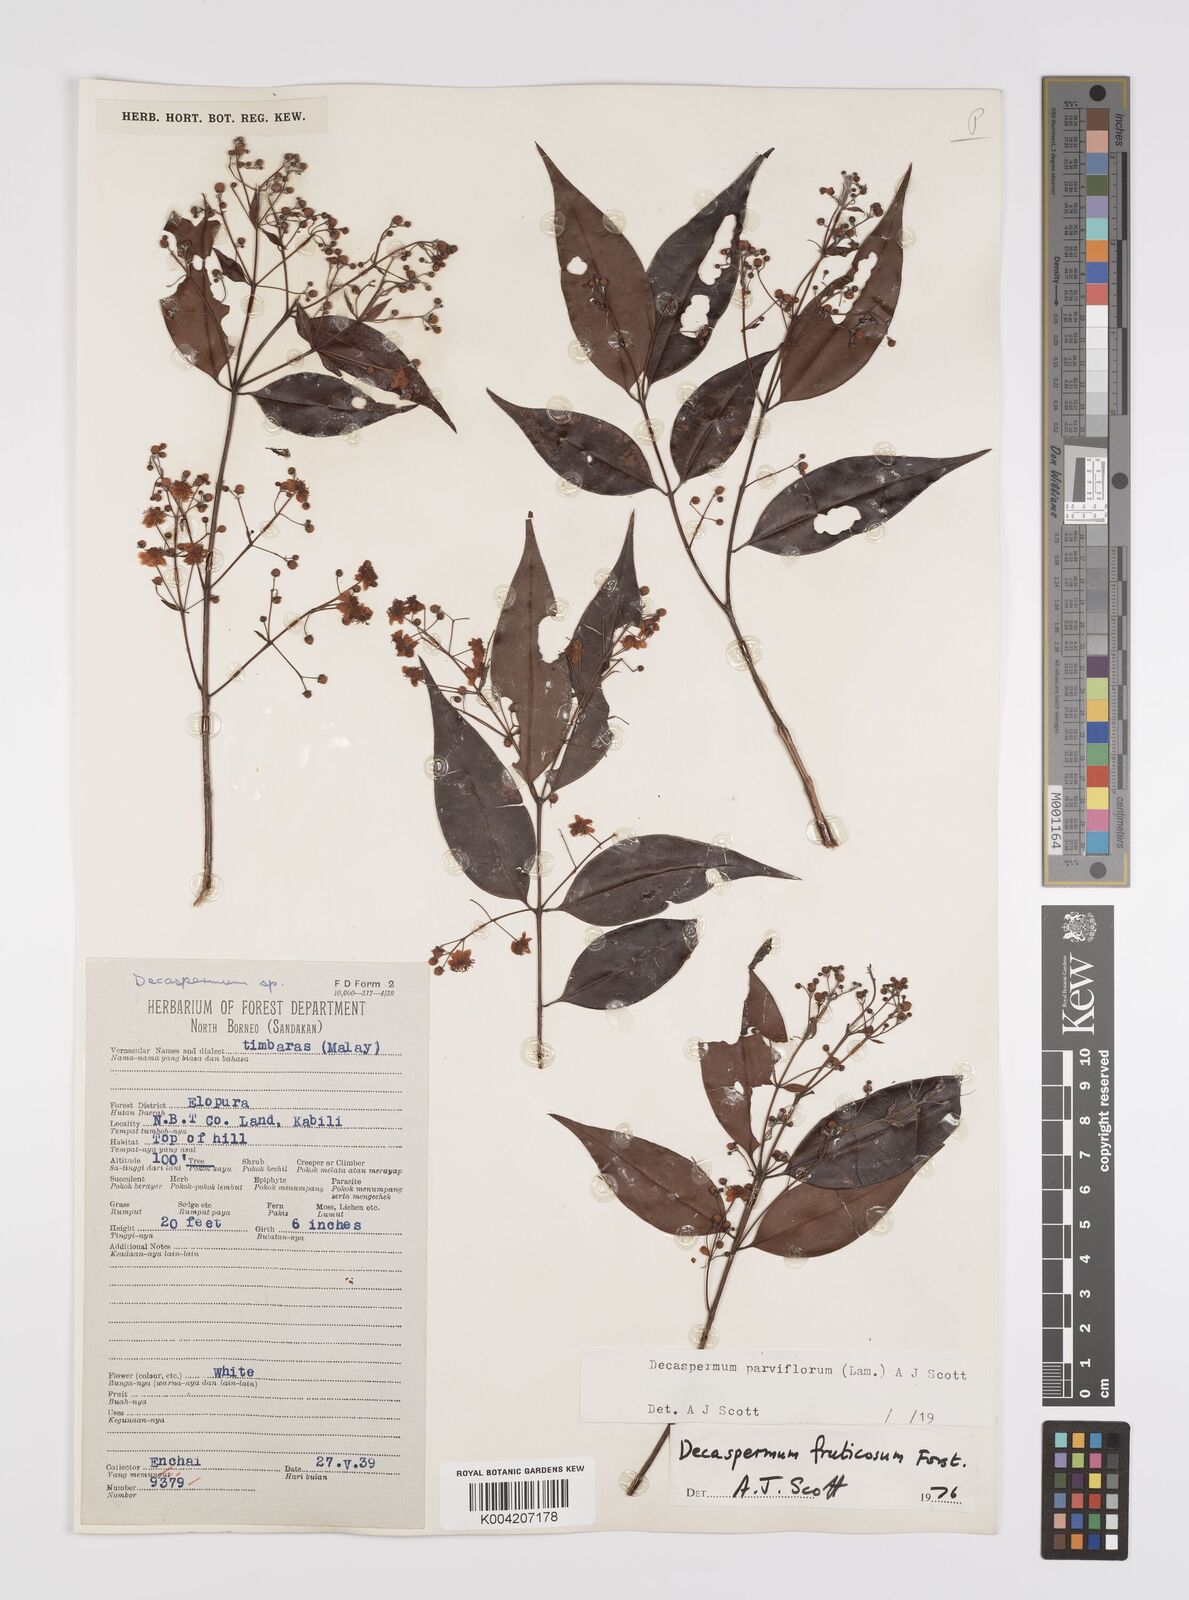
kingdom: Plantae
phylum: Tracheophyta
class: Magnoliopsida
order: Myrtales
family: Myrtaceae
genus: Decaspermum
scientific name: Decaspermum fruticosum
